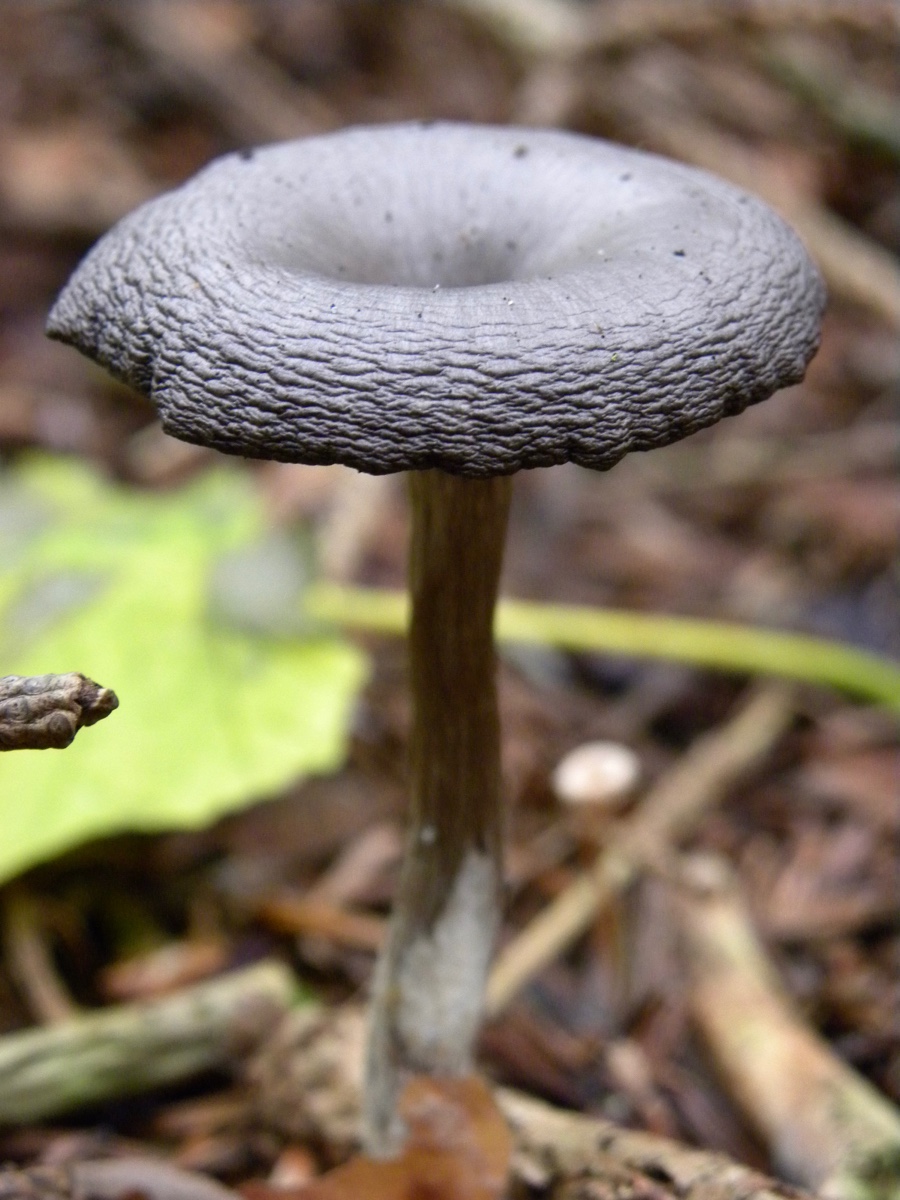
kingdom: Fungi
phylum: Basidiomycota
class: Agaricomycetes
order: Agaricales
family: Pseudoclitocybaceae
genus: Pseudoclitocybe
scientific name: Pseudoclitocybe cyathiformis
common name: almindelig bægertragthat
